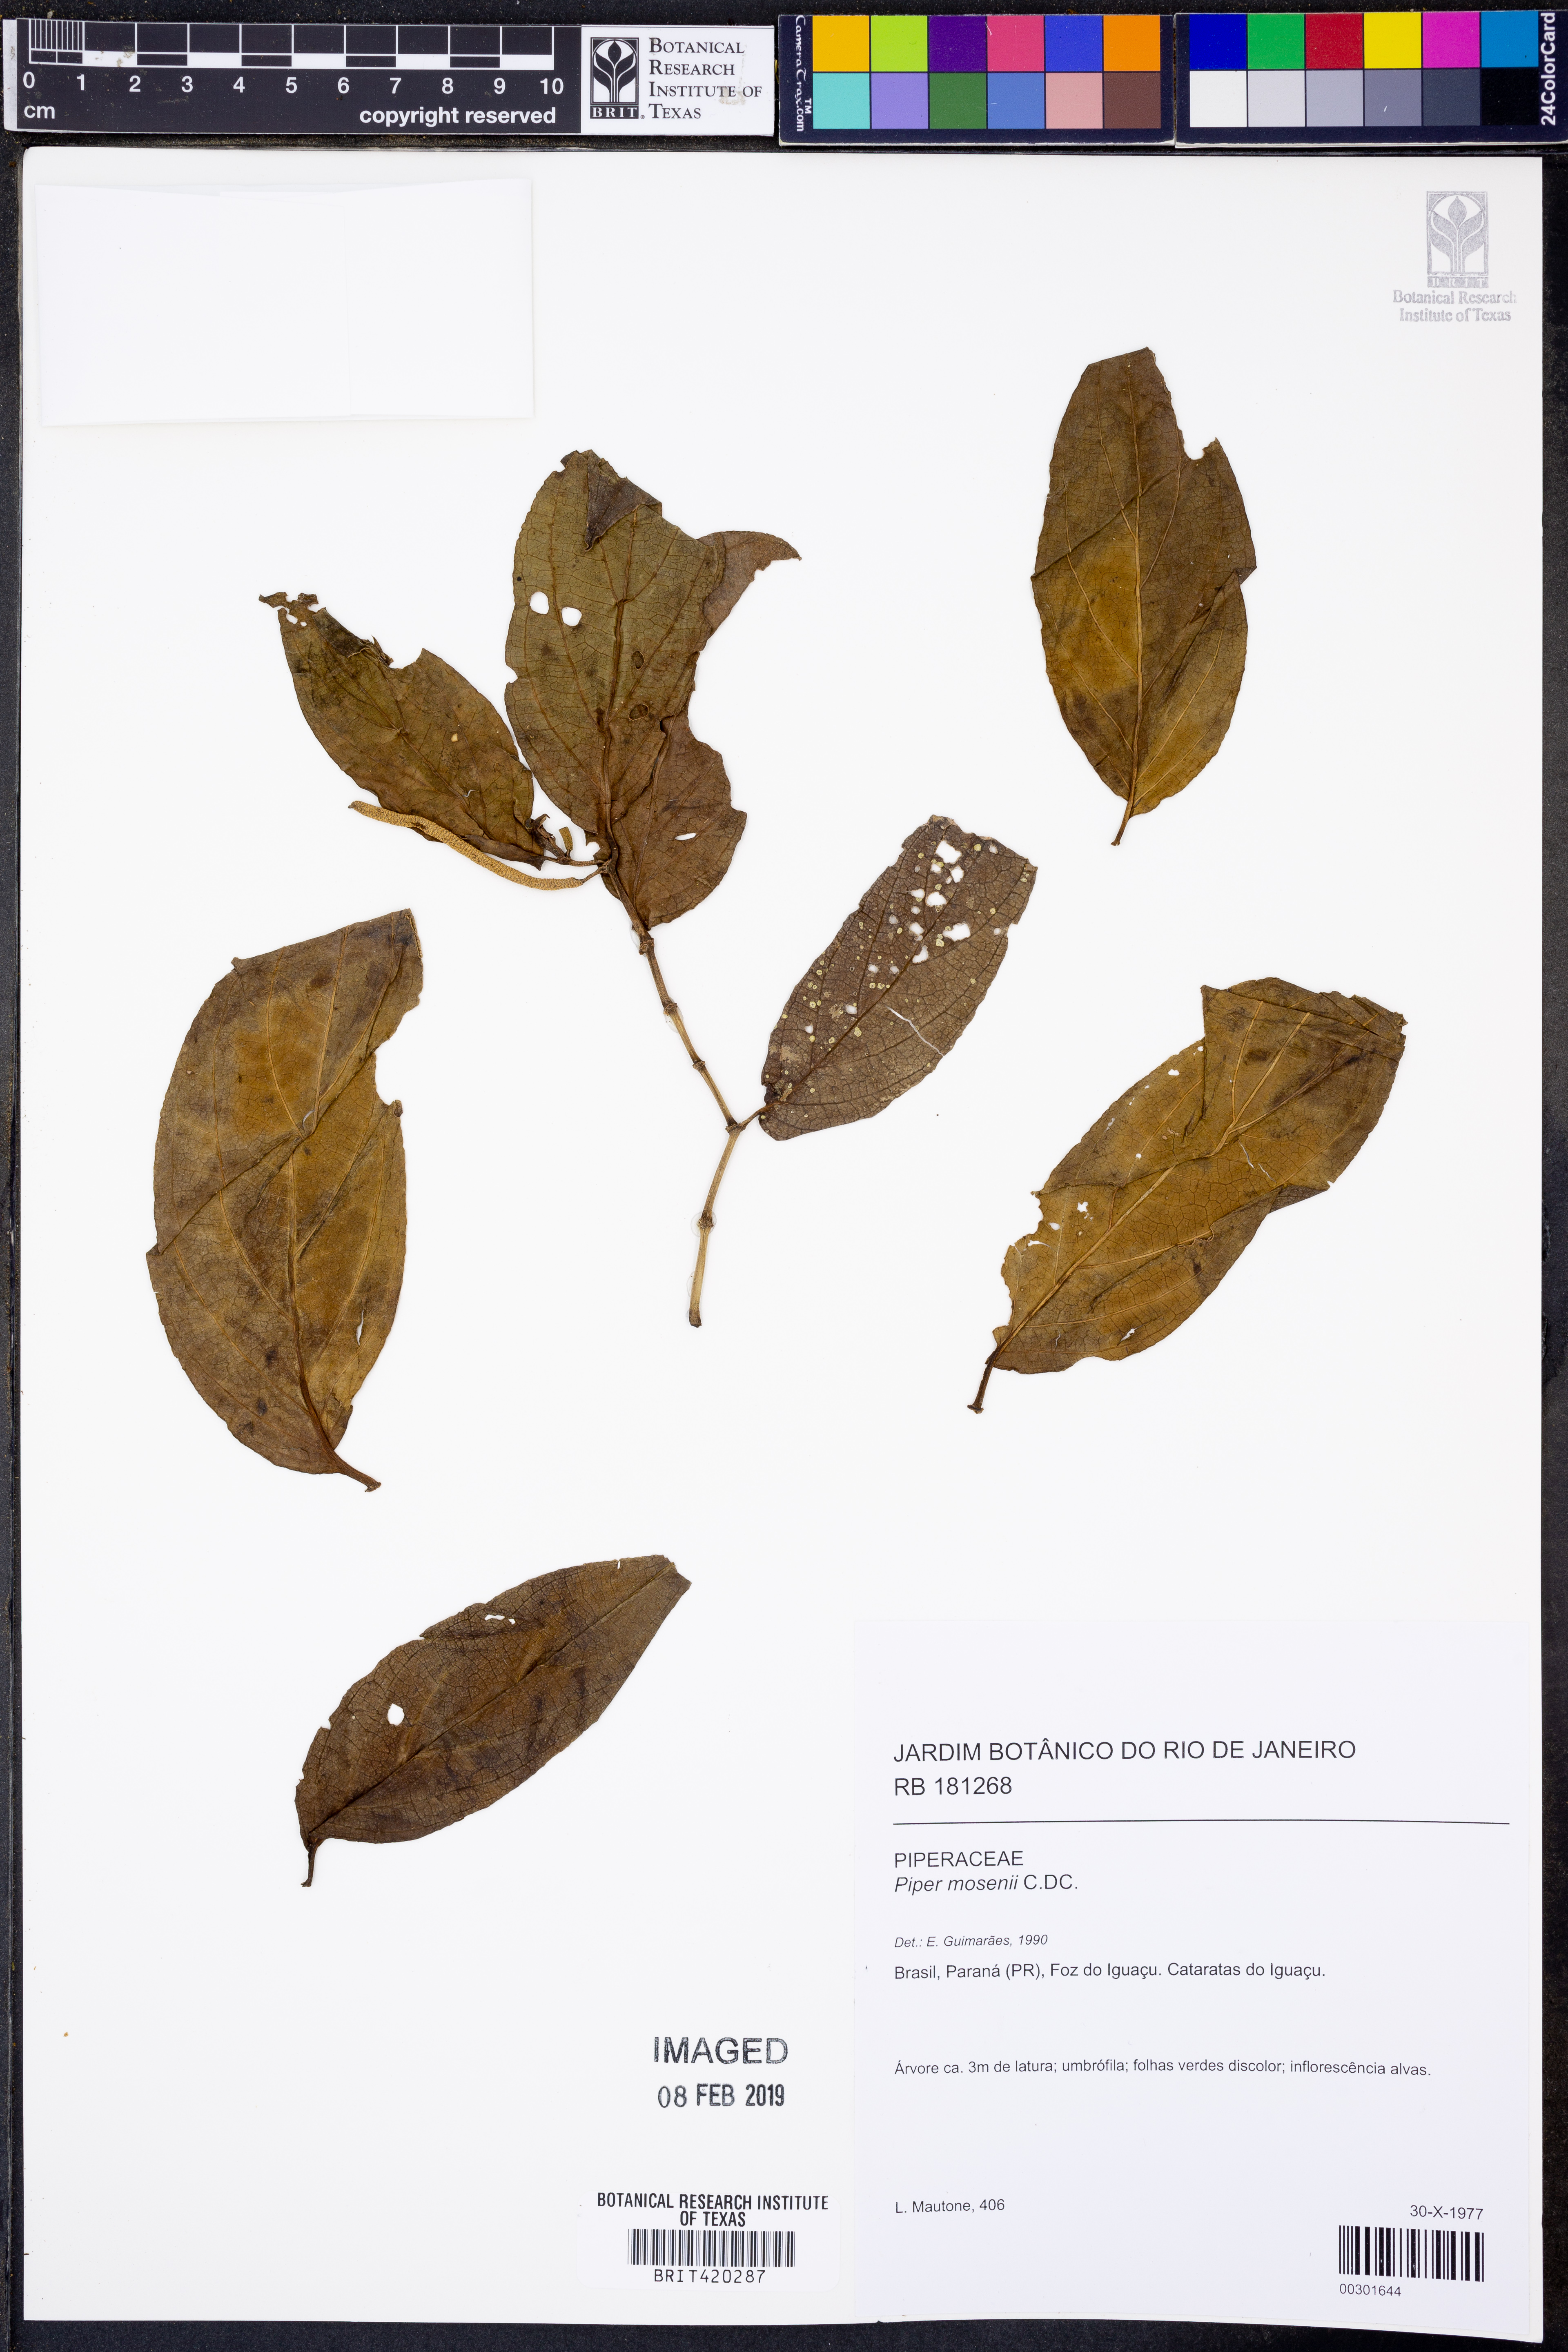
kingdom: Plantae
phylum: Tracheophyta
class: Magnoliopsida
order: Piperales
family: Piperaceae
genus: Piper
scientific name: Piper mosenii
